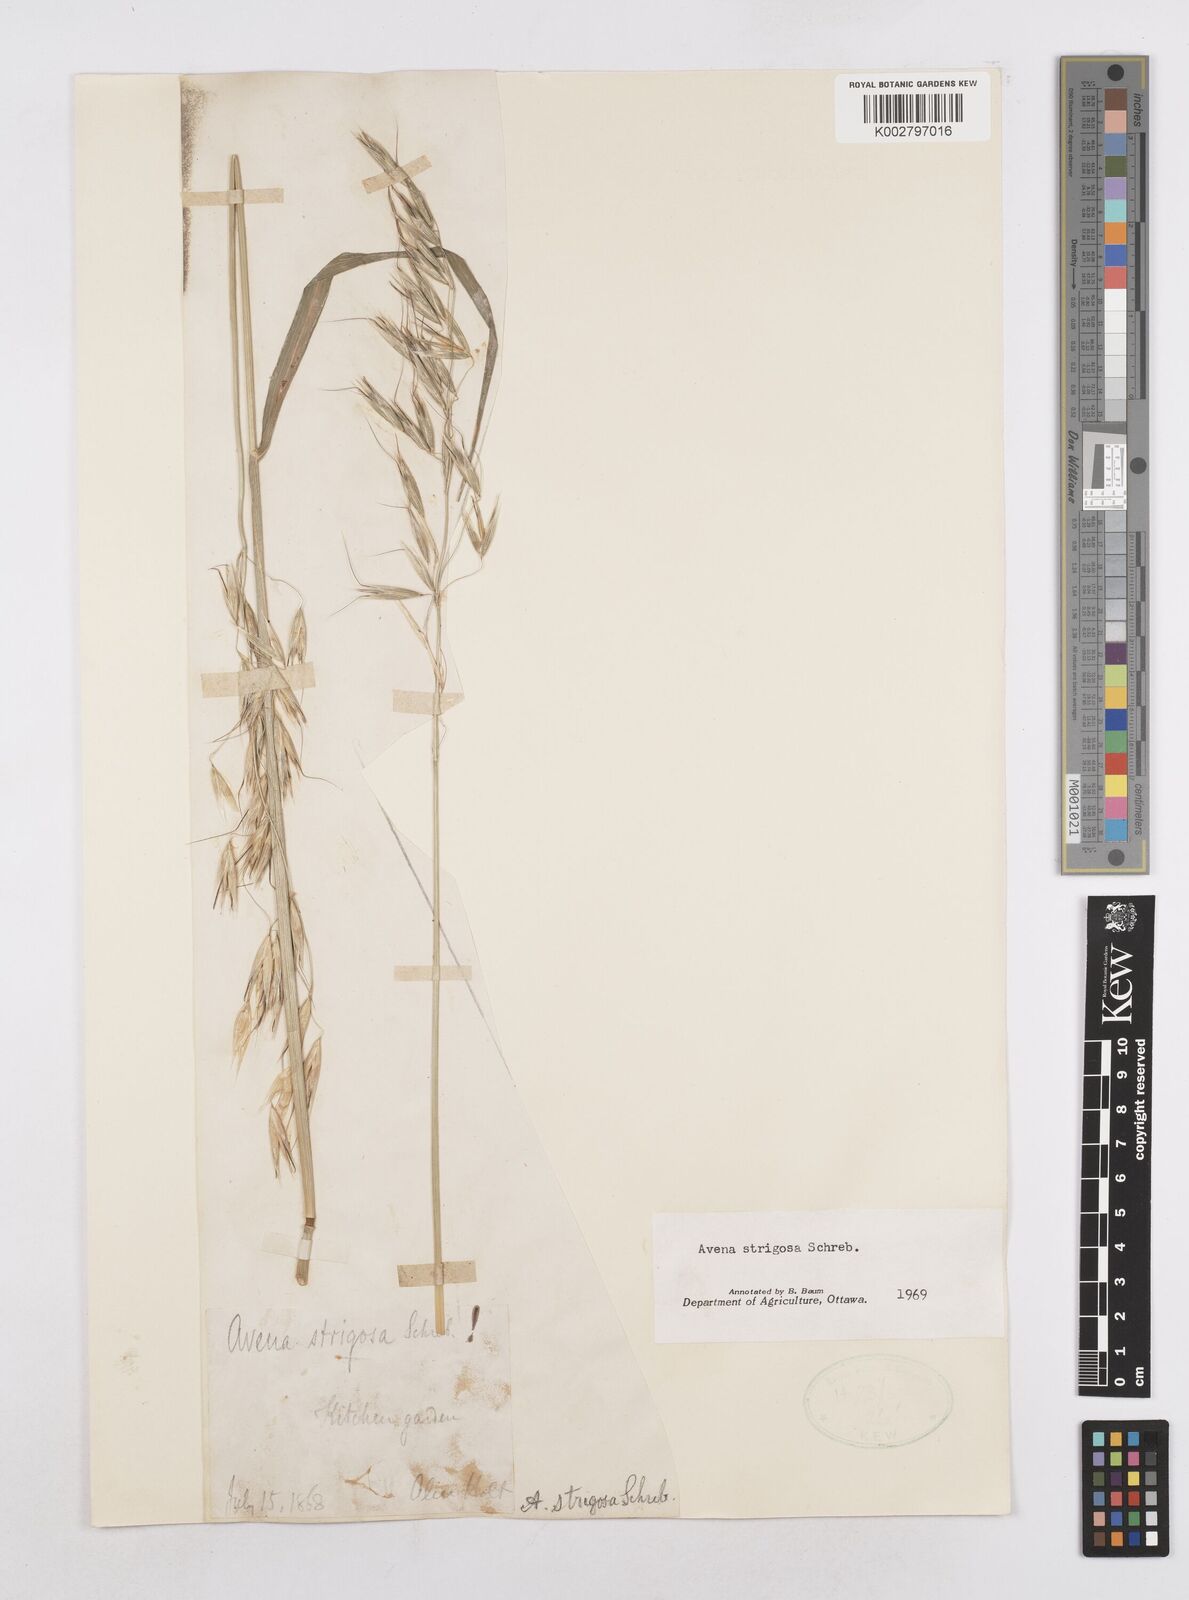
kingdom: Plantae
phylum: Tracheophyta
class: Liliopsida
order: Poales
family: Poaceae
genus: Avena
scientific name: Avena strigosa
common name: Bristle oat
